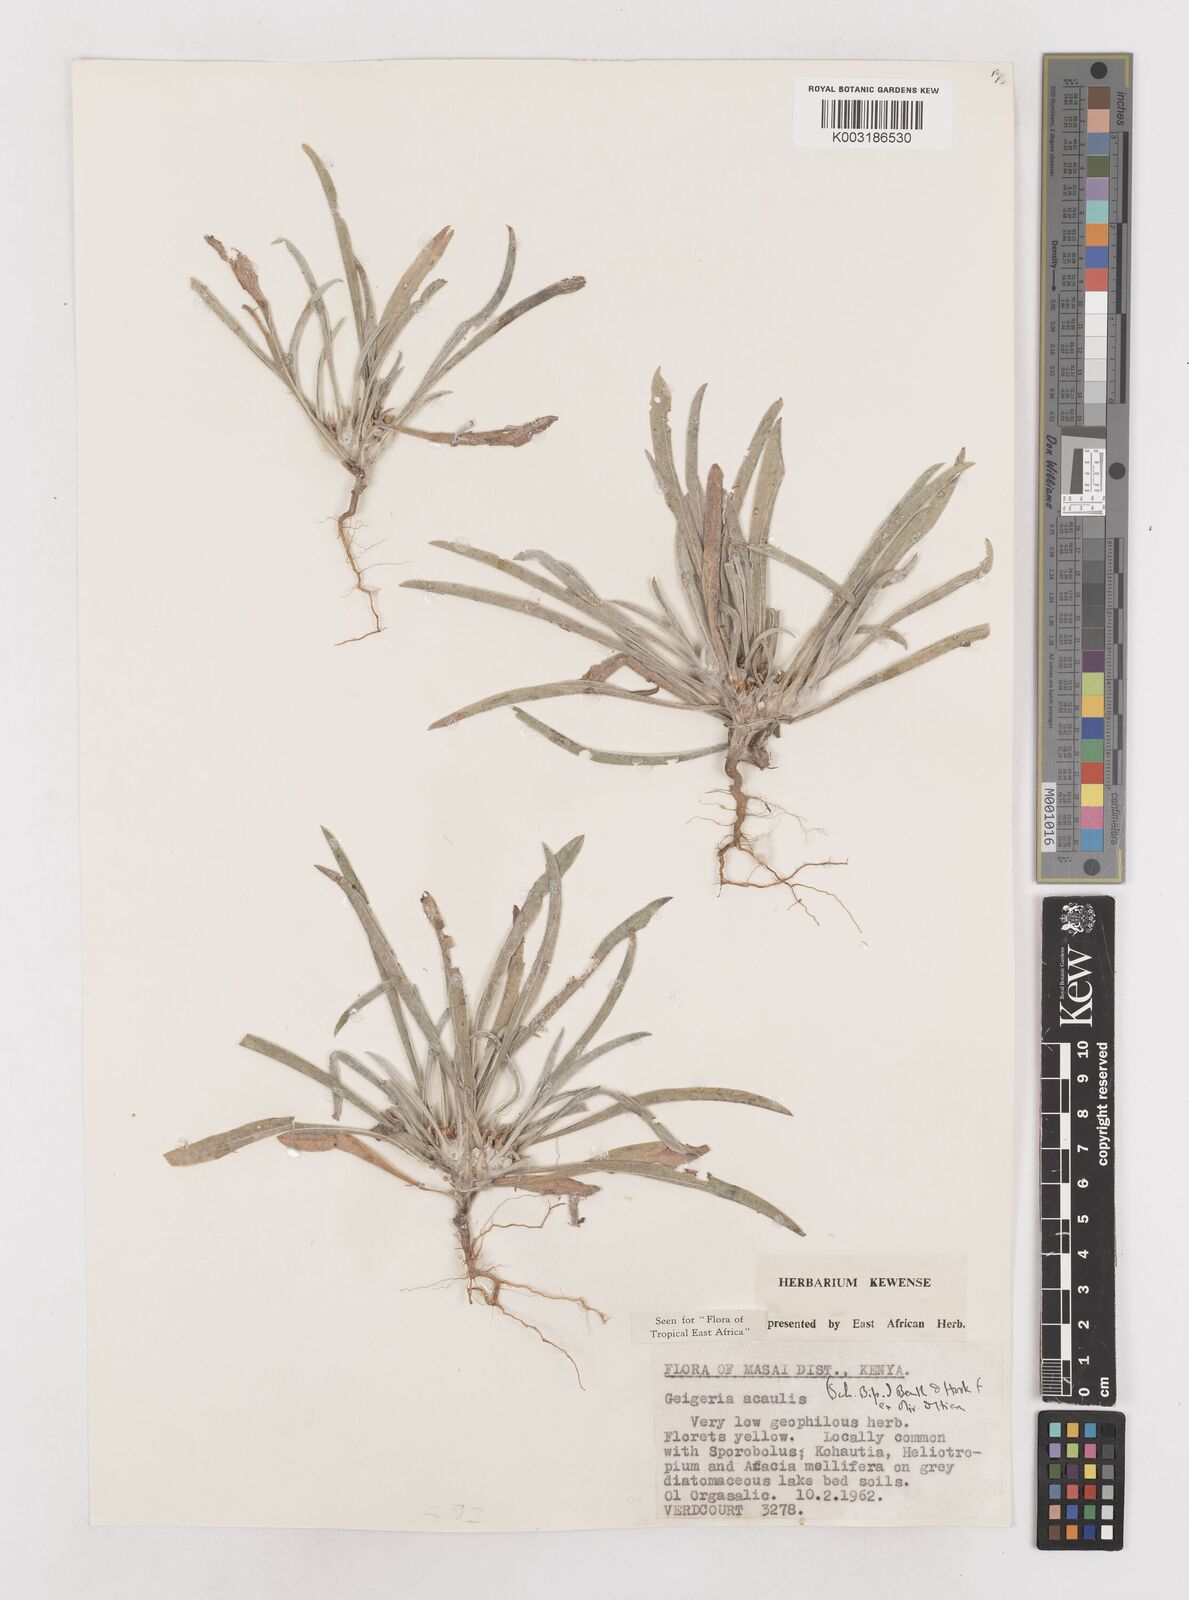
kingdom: Plantae
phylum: Tracheophyta
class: Magnoliopsida
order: Asterales
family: Asteraceae
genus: Geigeria
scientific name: Geigeria acaulis
